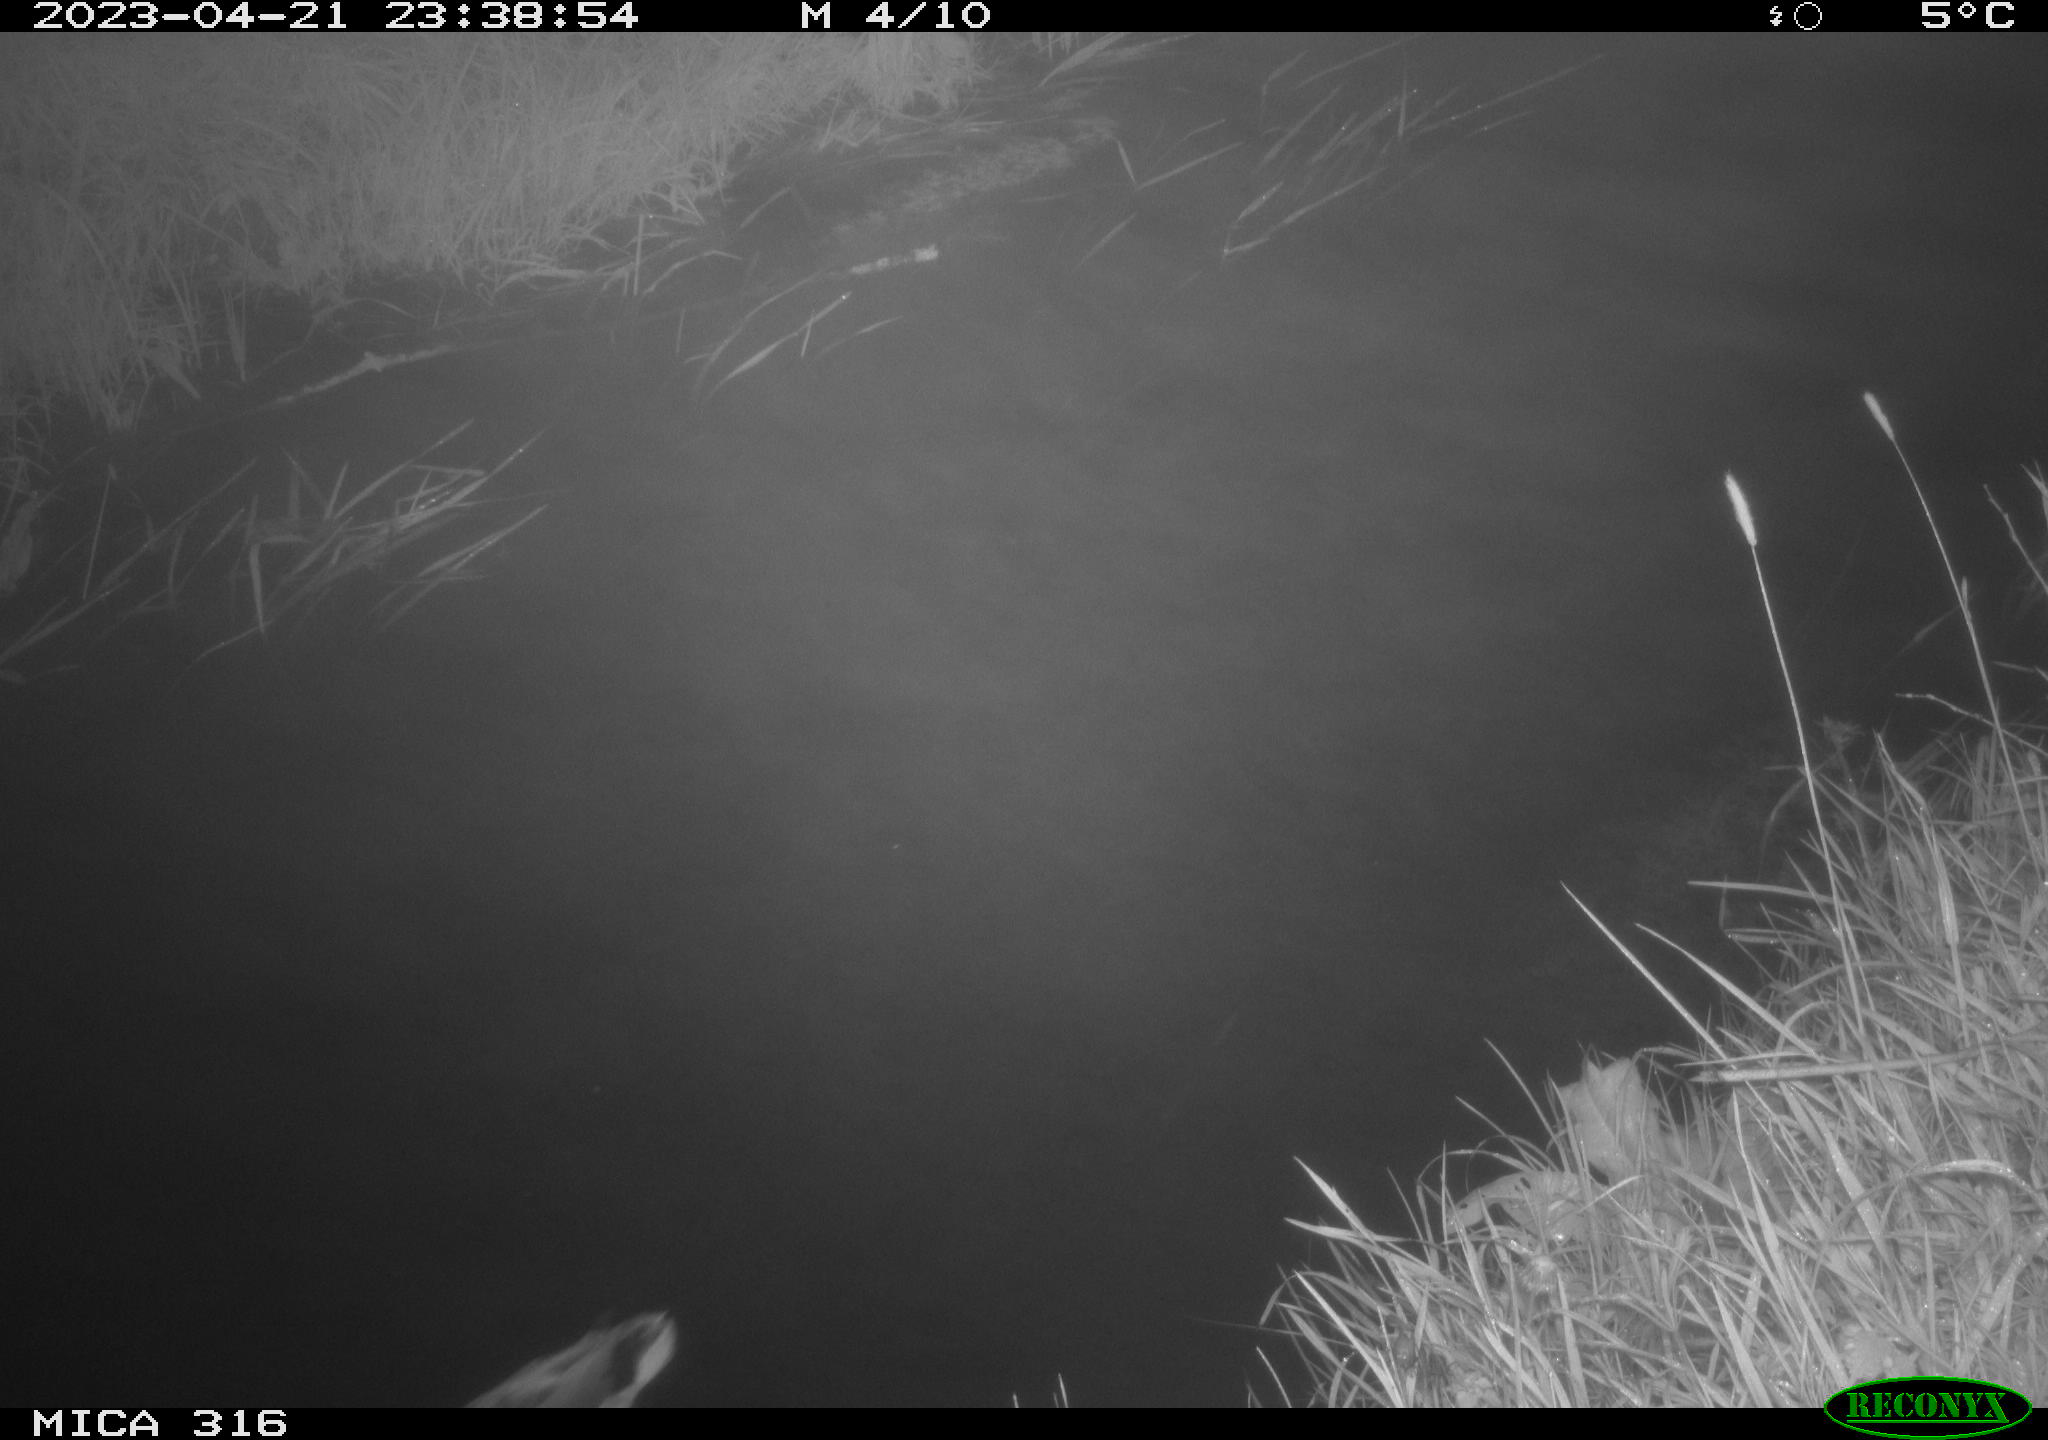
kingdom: Animalia
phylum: Chordata
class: Aves
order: Anseriformes
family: Anatidae
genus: Anas
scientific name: Anas
